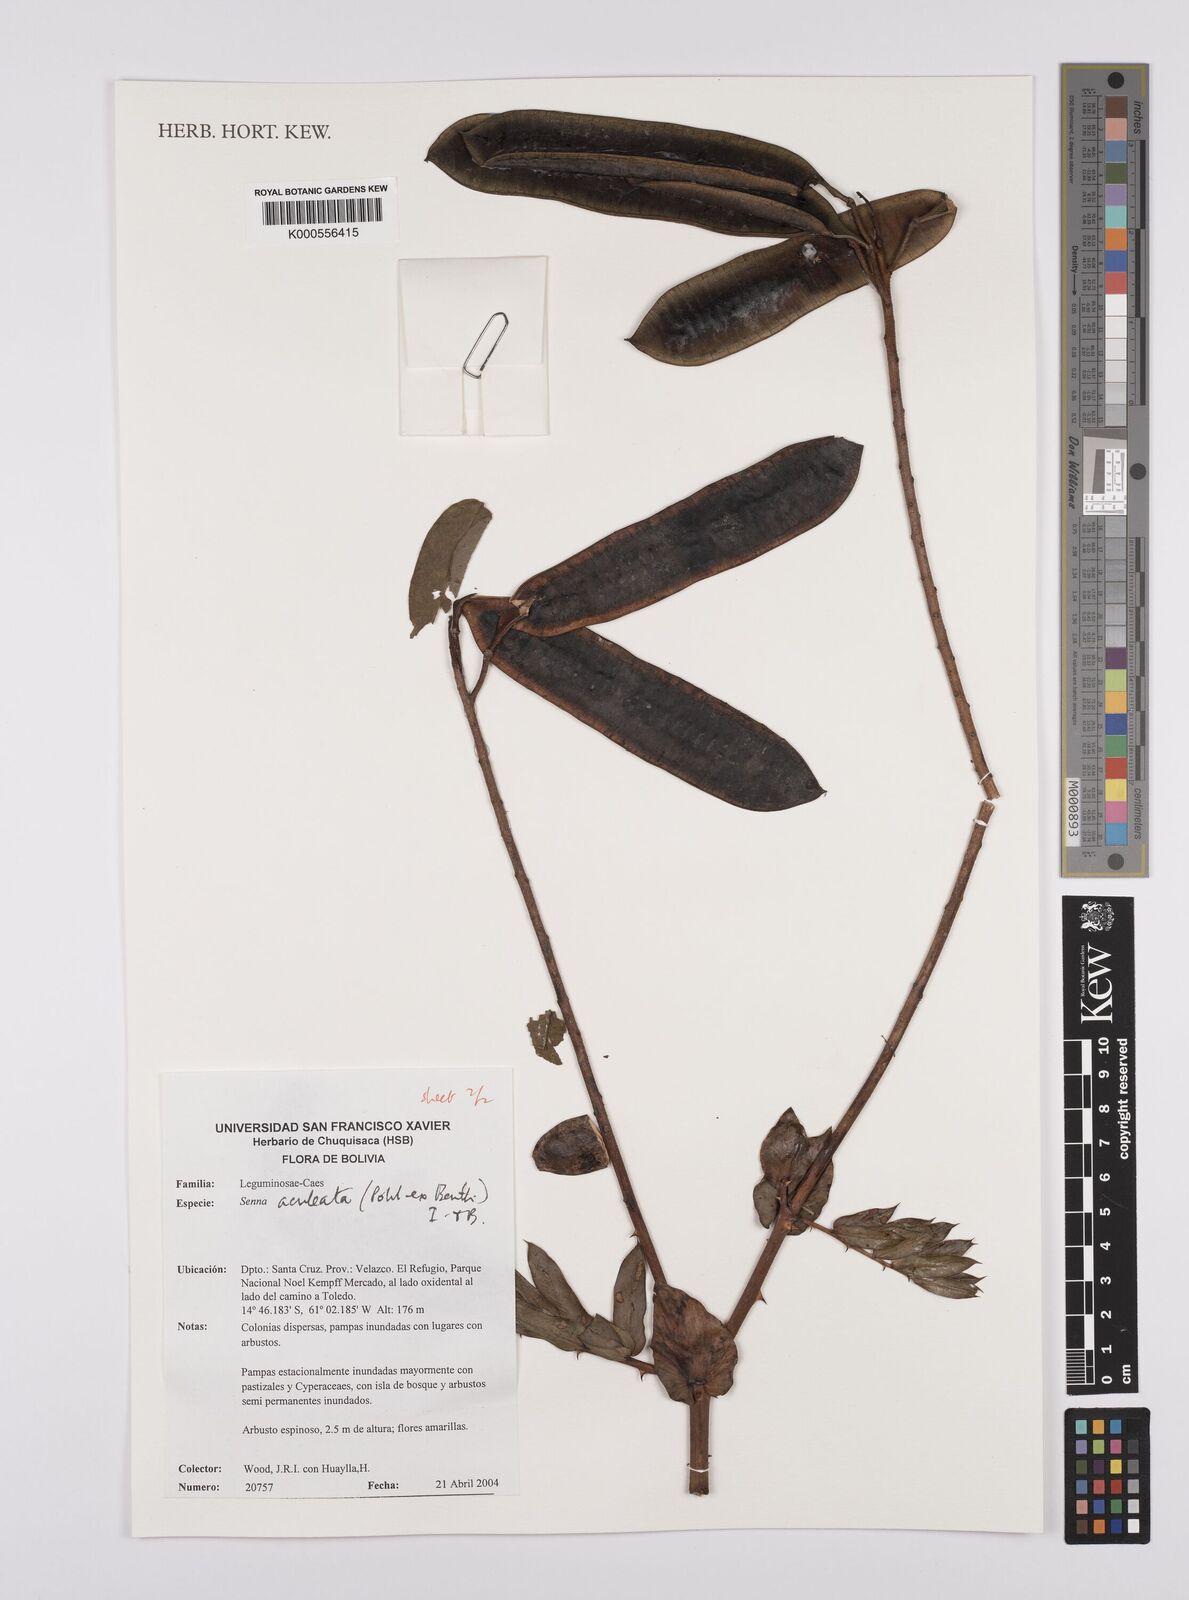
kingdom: Plantae
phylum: Tracheophyta
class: Magnoliopsida
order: Fabales
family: Fabaceae
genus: Senna
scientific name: Senna aculeata
